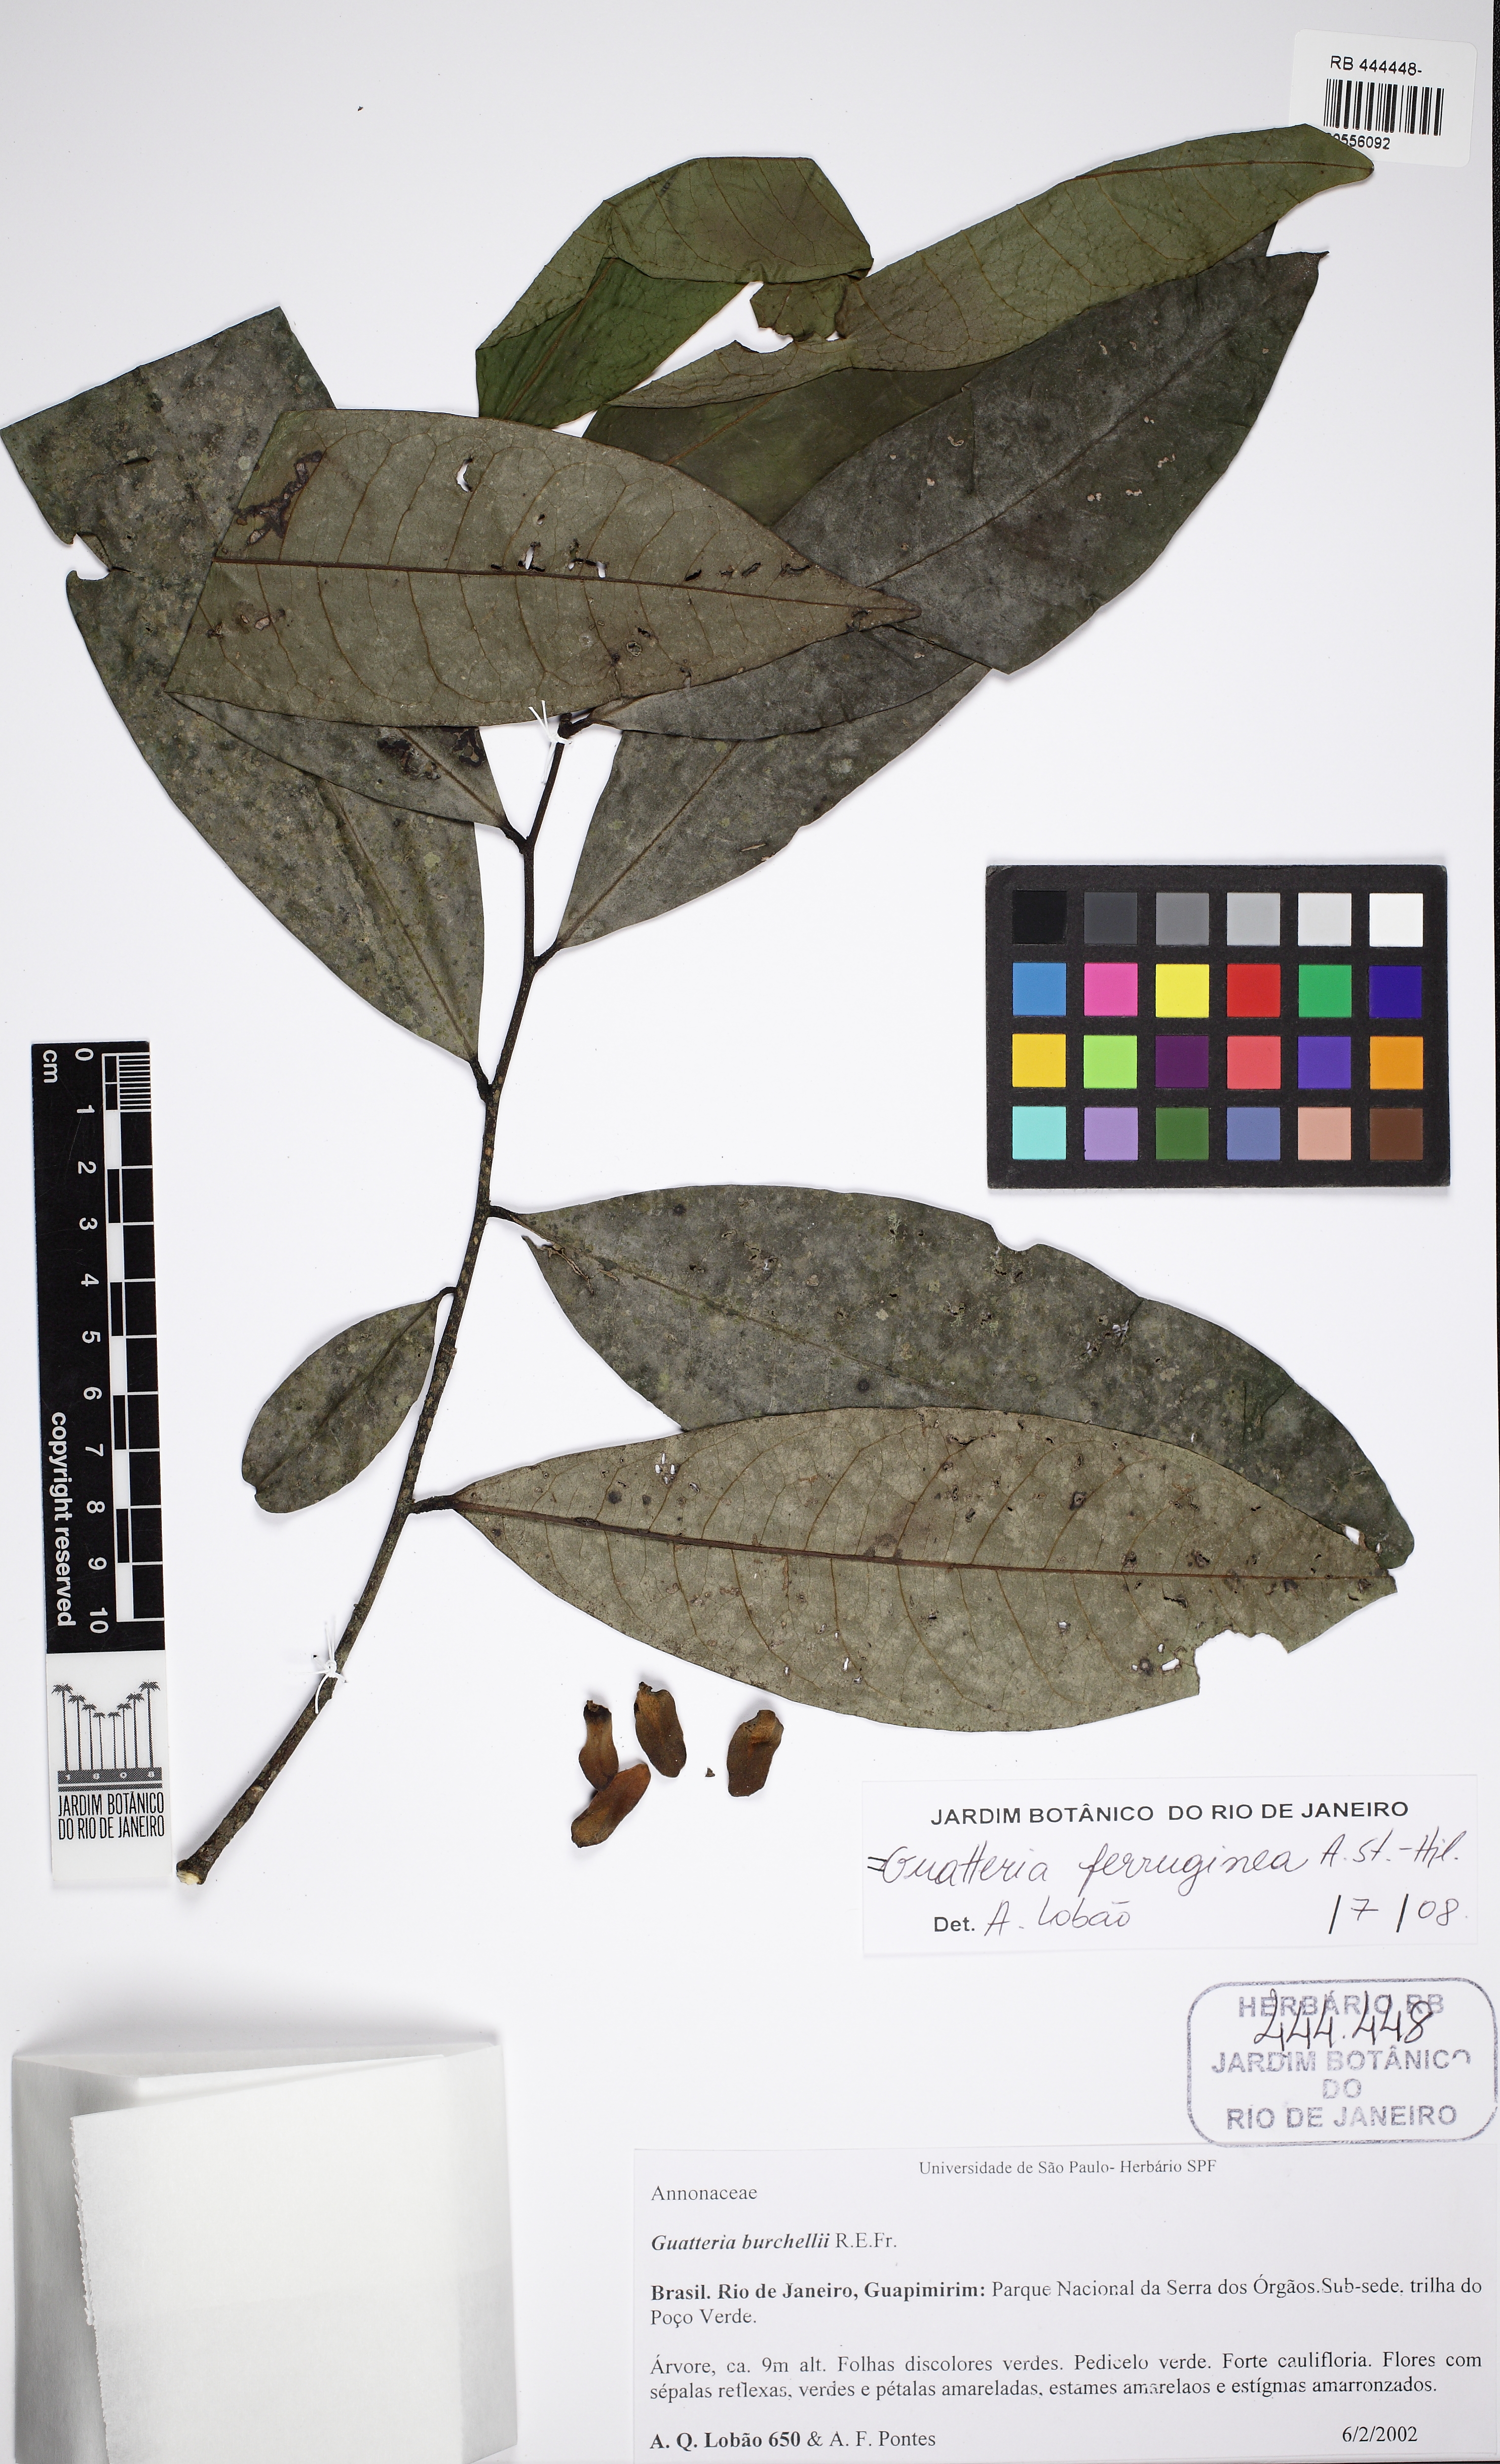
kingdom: Plantae
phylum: Tracheophyta
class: Magnoliopsida
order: Magnoliales
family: Annonaceae
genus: Guatteria
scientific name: Guatteria ferruginea
